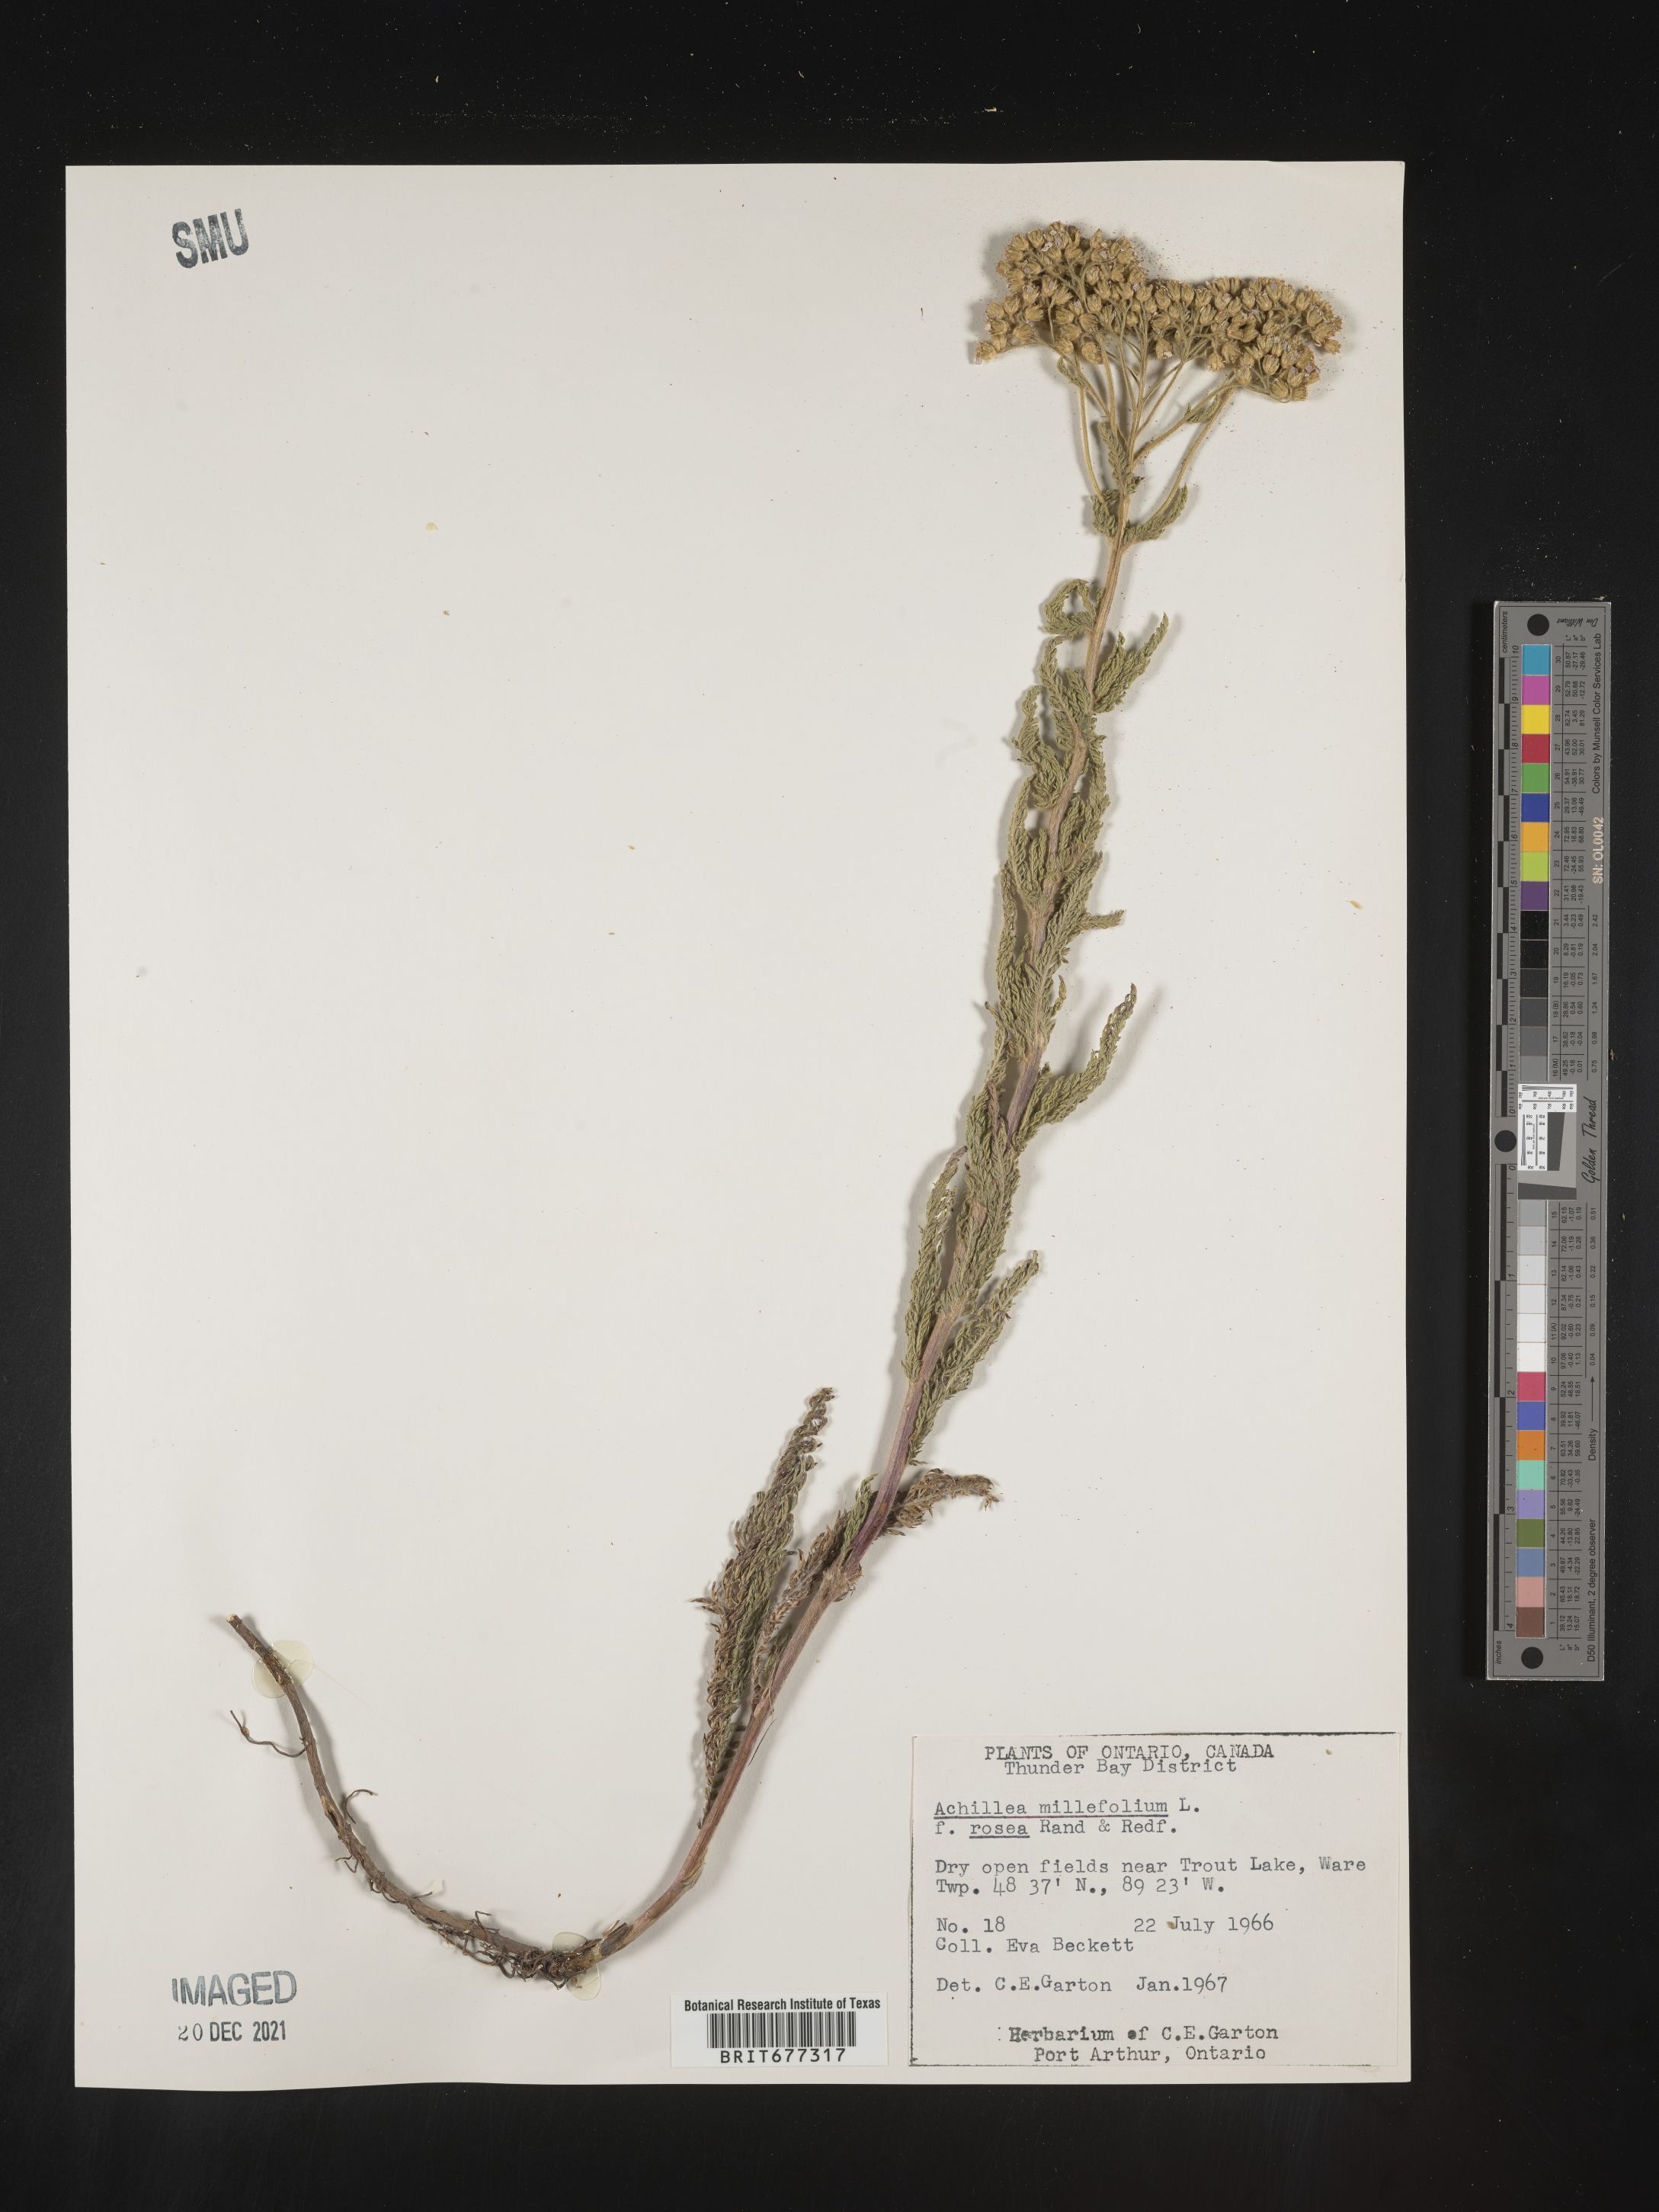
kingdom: Plantae
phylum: Tracheophyta
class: Magnoliopsida
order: Asterales
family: Asteraceae
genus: Achillea
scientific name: Achillea millefolium
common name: Yarrow
